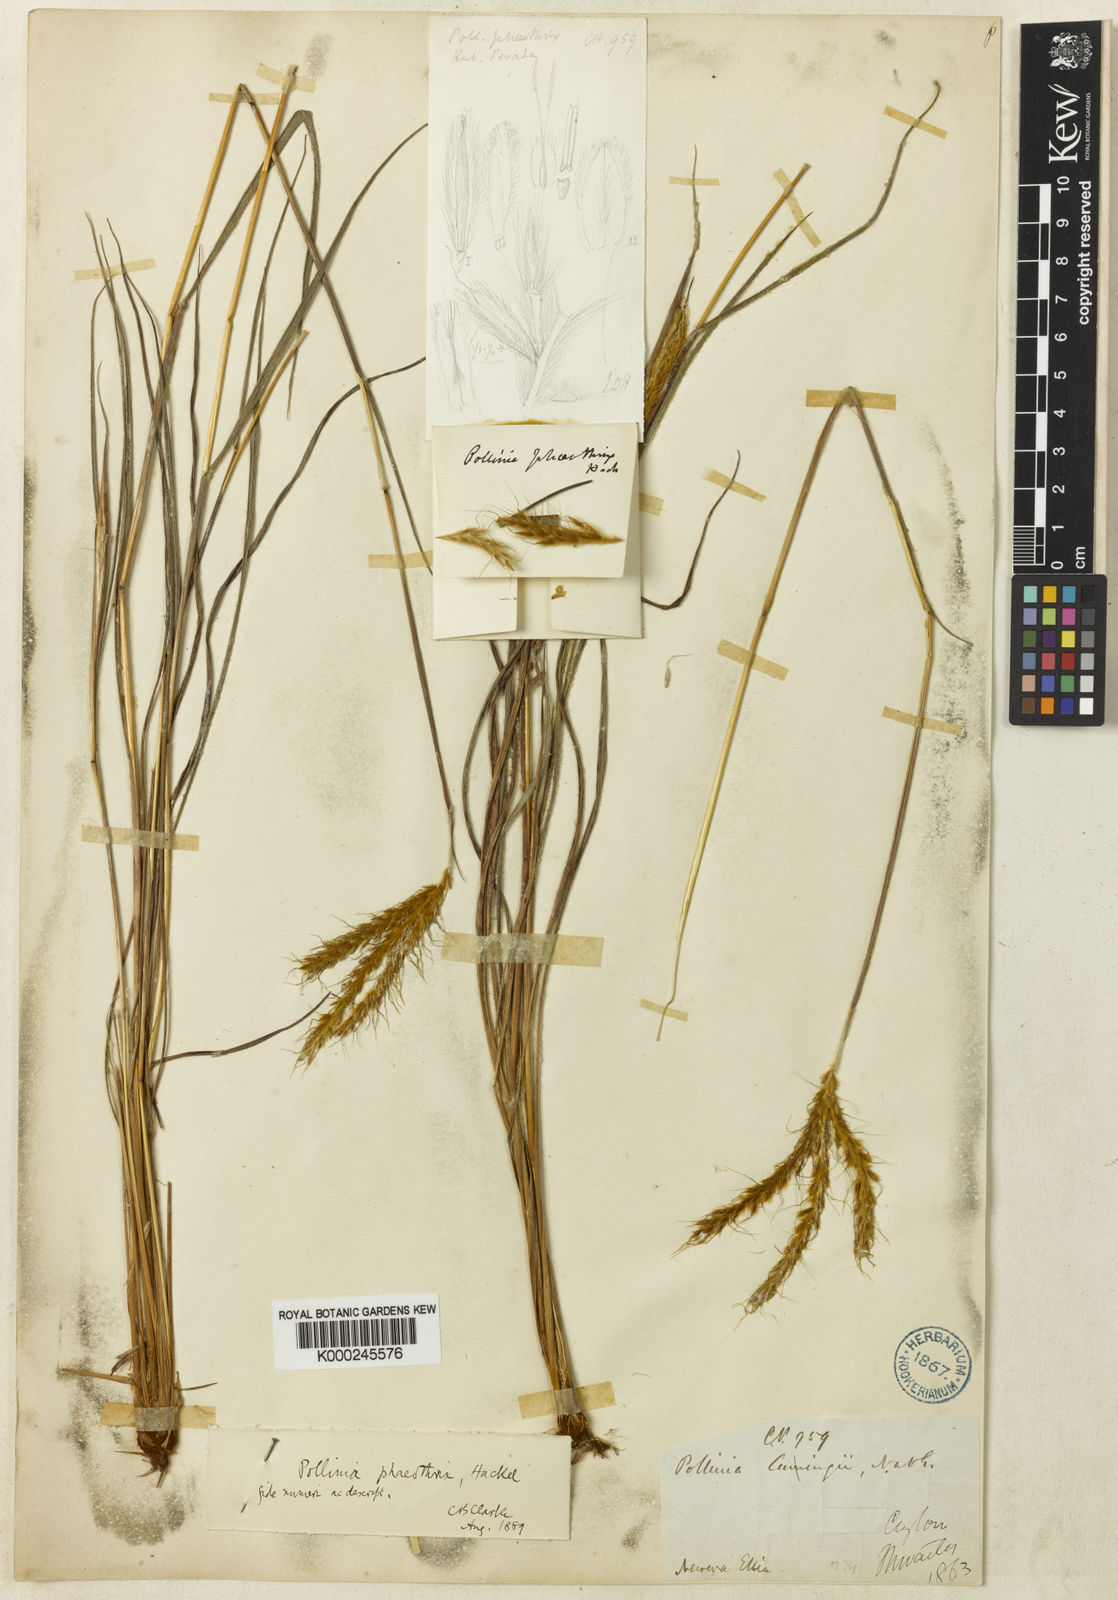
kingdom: Plantae
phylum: Tracheophyta
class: Liliopsida
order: Poales
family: Poaceae
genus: Eulalia
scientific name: Eulalia phaeothrix
